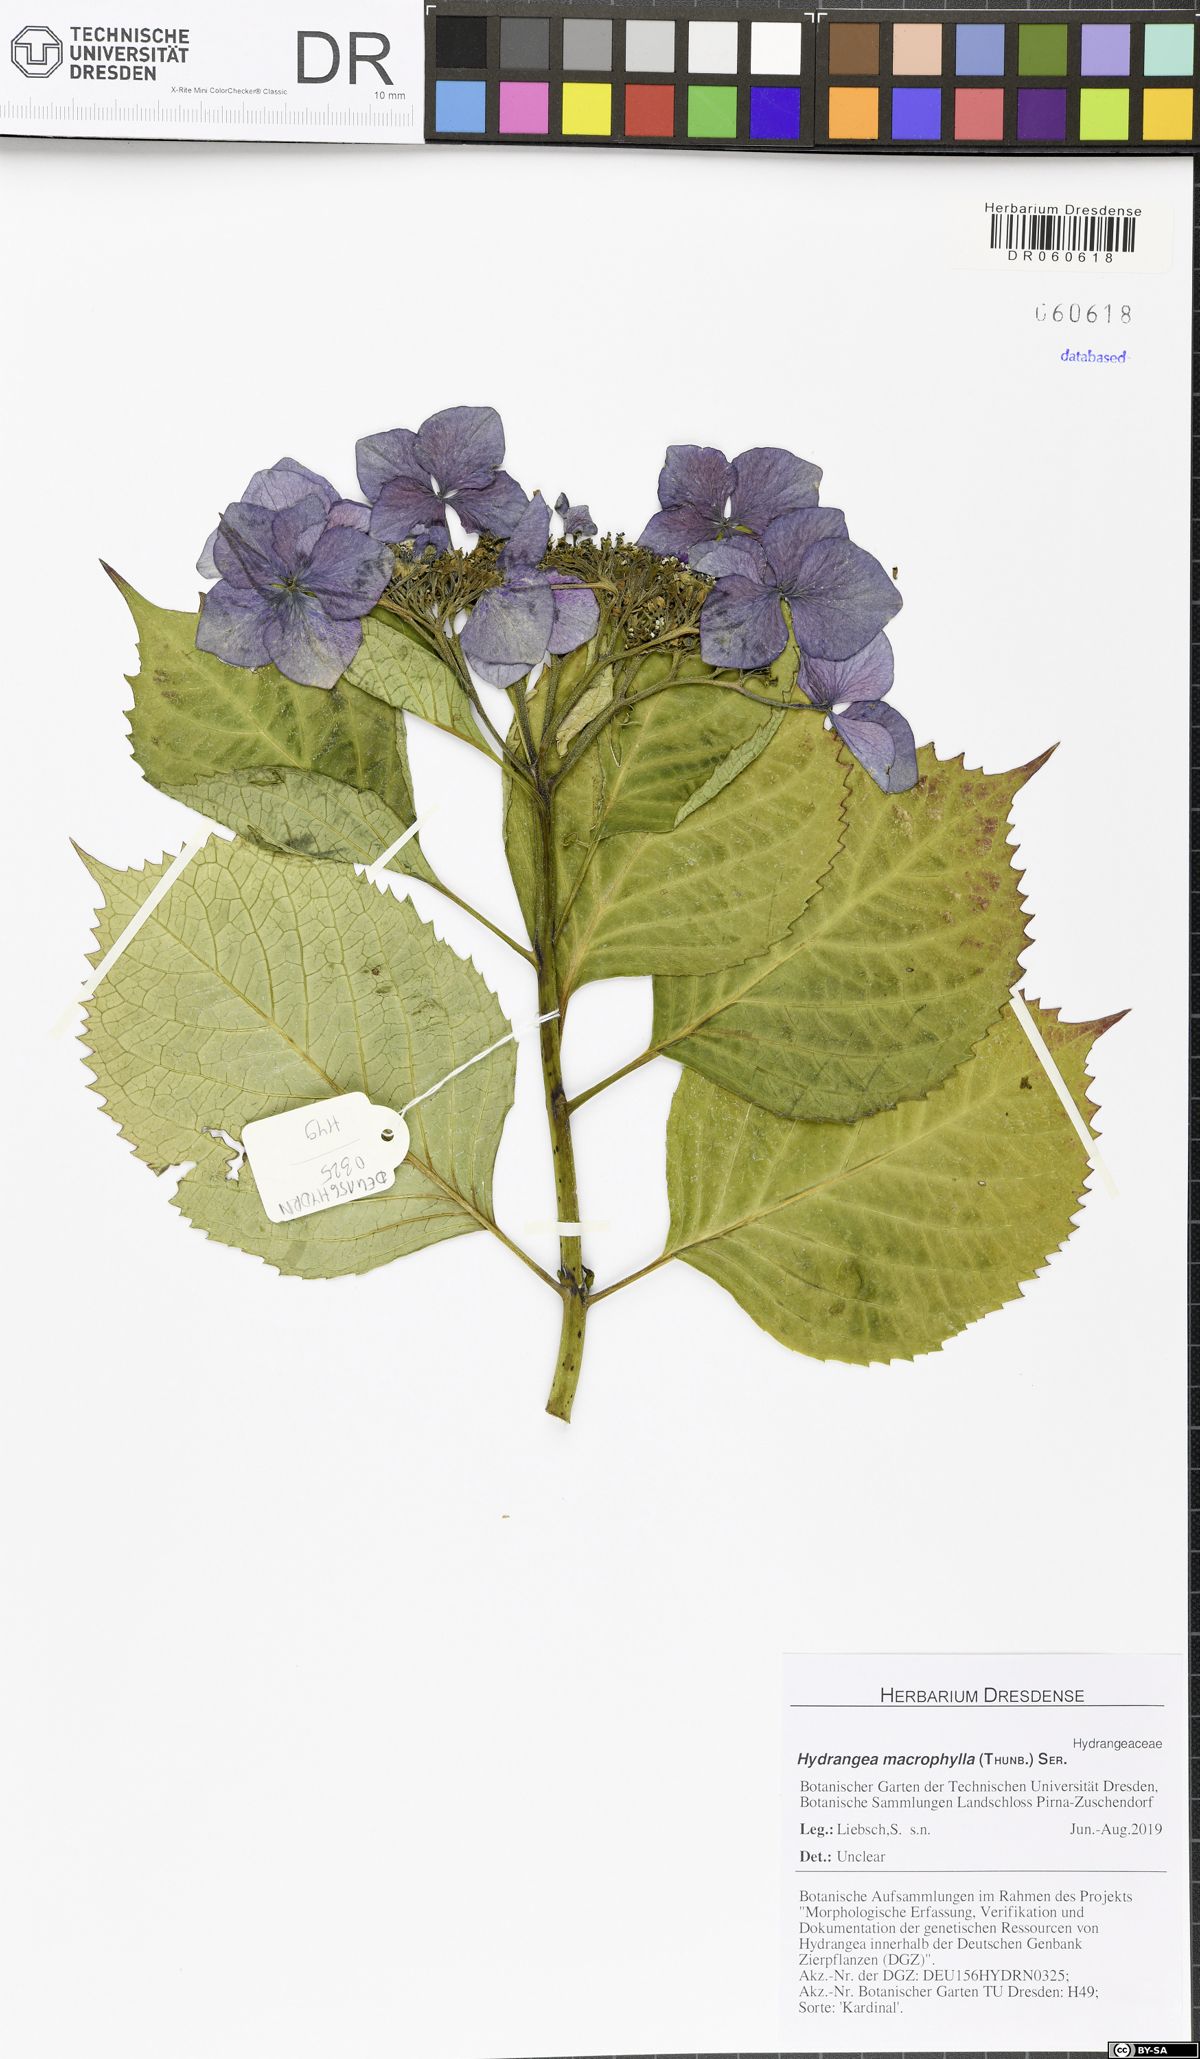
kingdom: Plantae
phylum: Tracheophyta
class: Magnoliopsida
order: Cornales
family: Hydrangeaceae
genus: Hydrangea
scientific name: Hydrangea macrophylla
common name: Hydrangea
